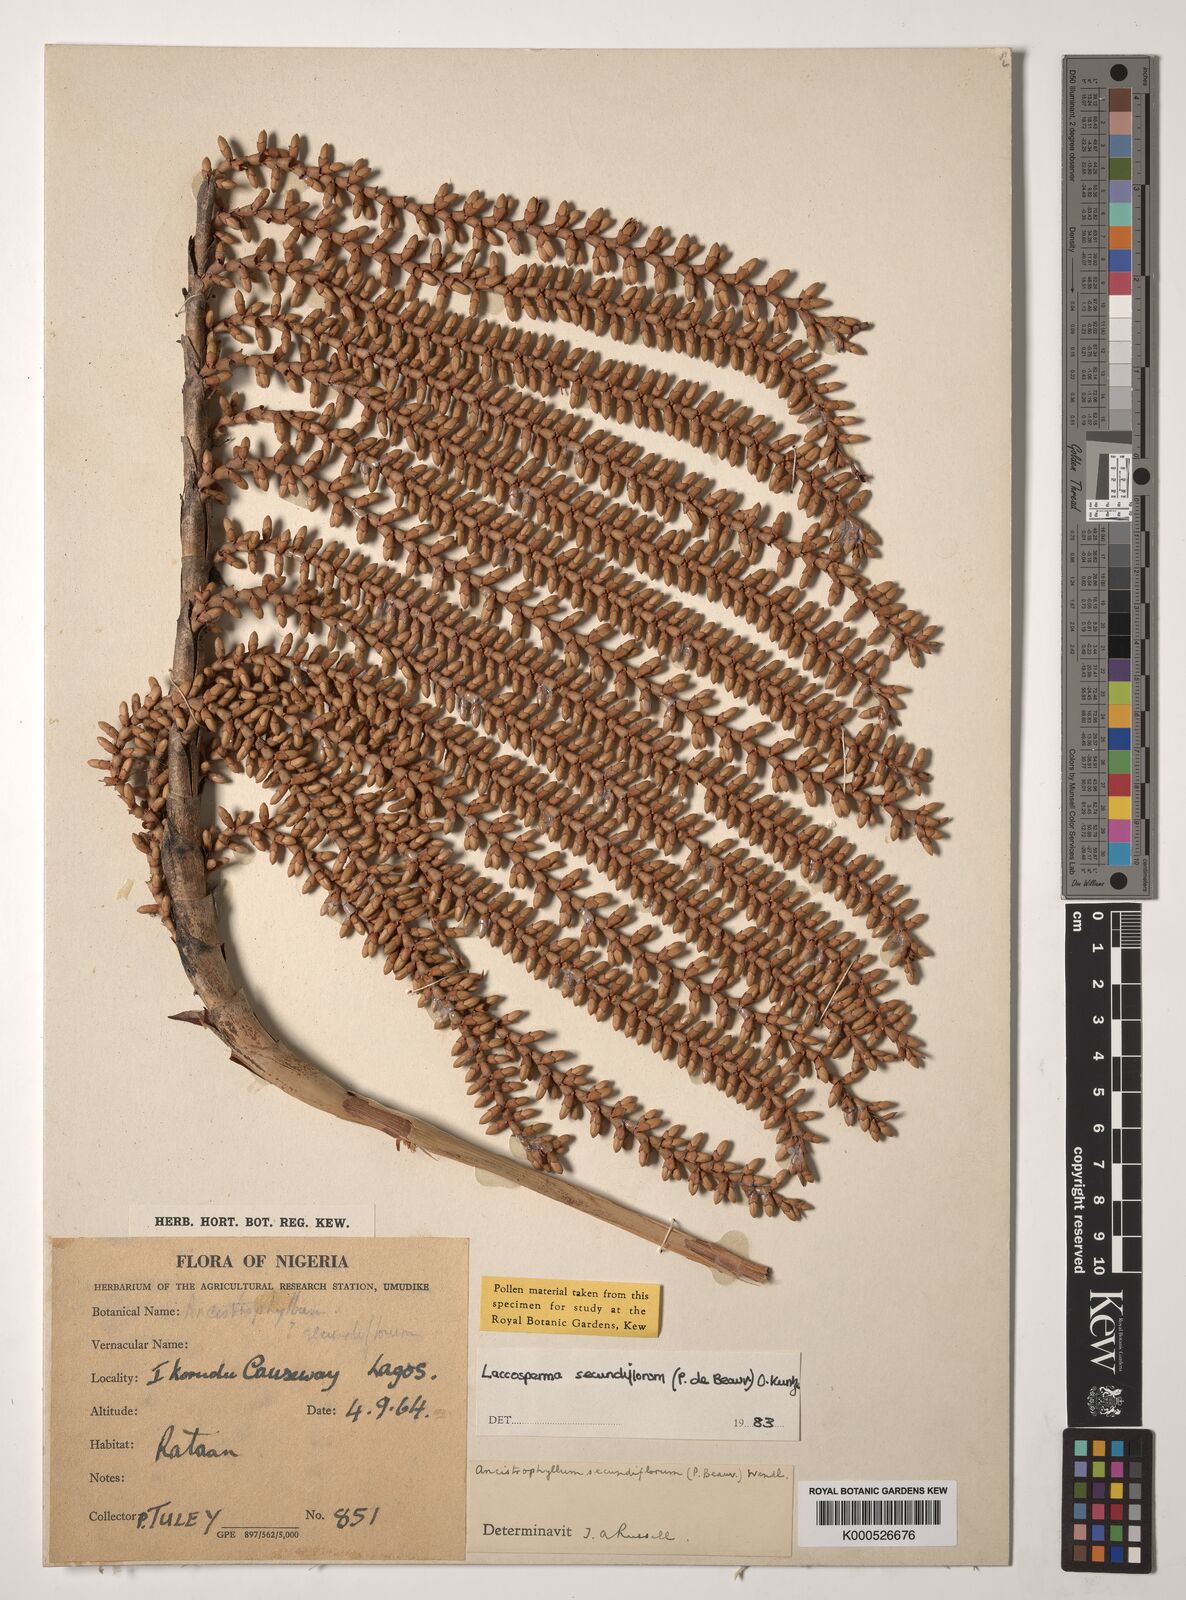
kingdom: Plantae
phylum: Tracheophyta
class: Liliopsida
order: Arecales
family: Arecaceae
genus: Laccosperma
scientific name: Laccosperma secundiflorum
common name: Rattan
